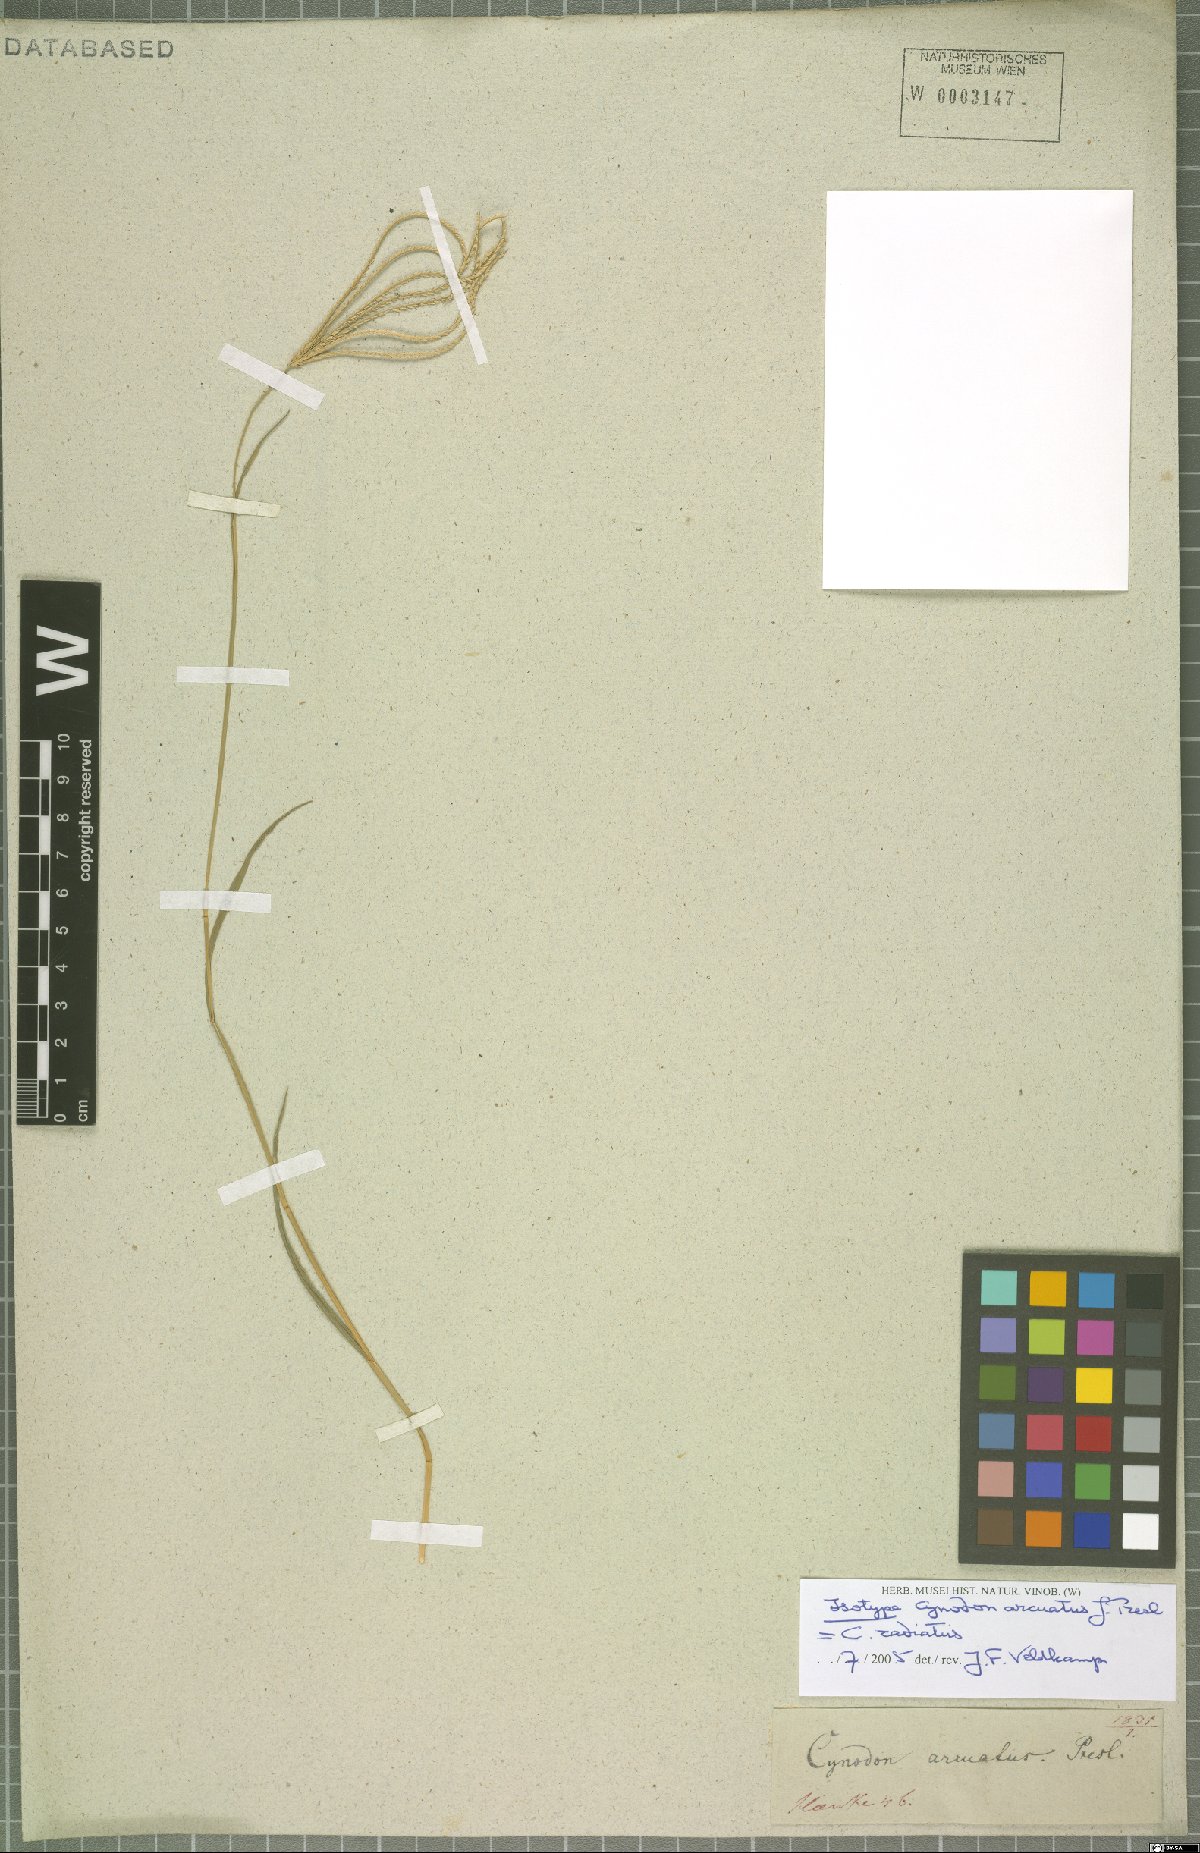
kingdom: Plantae
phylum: Tracheophyta
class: Liliopsida
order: Poales
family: Poaceae
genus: Cynodon
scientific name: Cynodon radiatus
